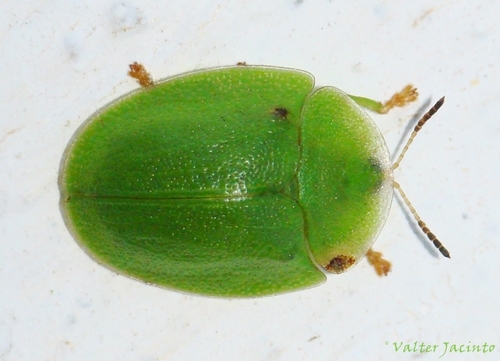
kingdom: Animalia
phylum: Arthropoda
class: Insecta
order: Coleoptera
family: Chrysomelidae
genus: Cassida
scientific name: Cassida viridis
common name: Green tortoise beetle
